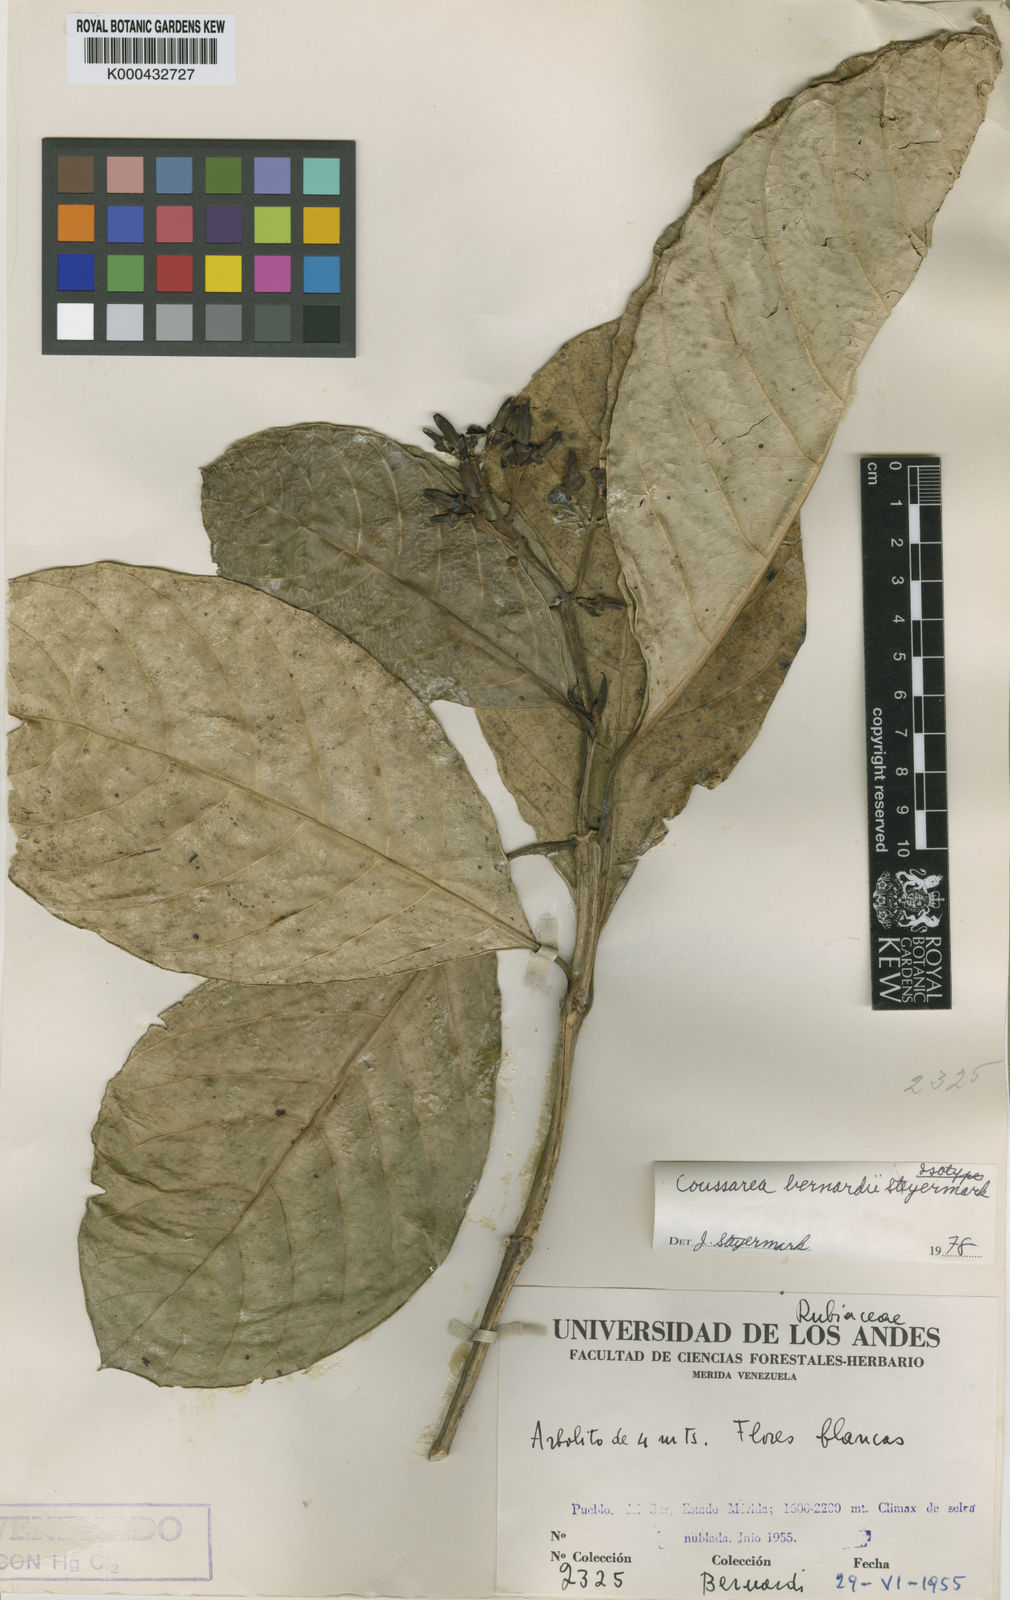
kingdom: Plantae
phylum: Tracheophyta
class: Magnoliopsida
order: Gentianales
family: Rubiaceae
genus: Coussarea
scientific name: Coussarea bernardii
